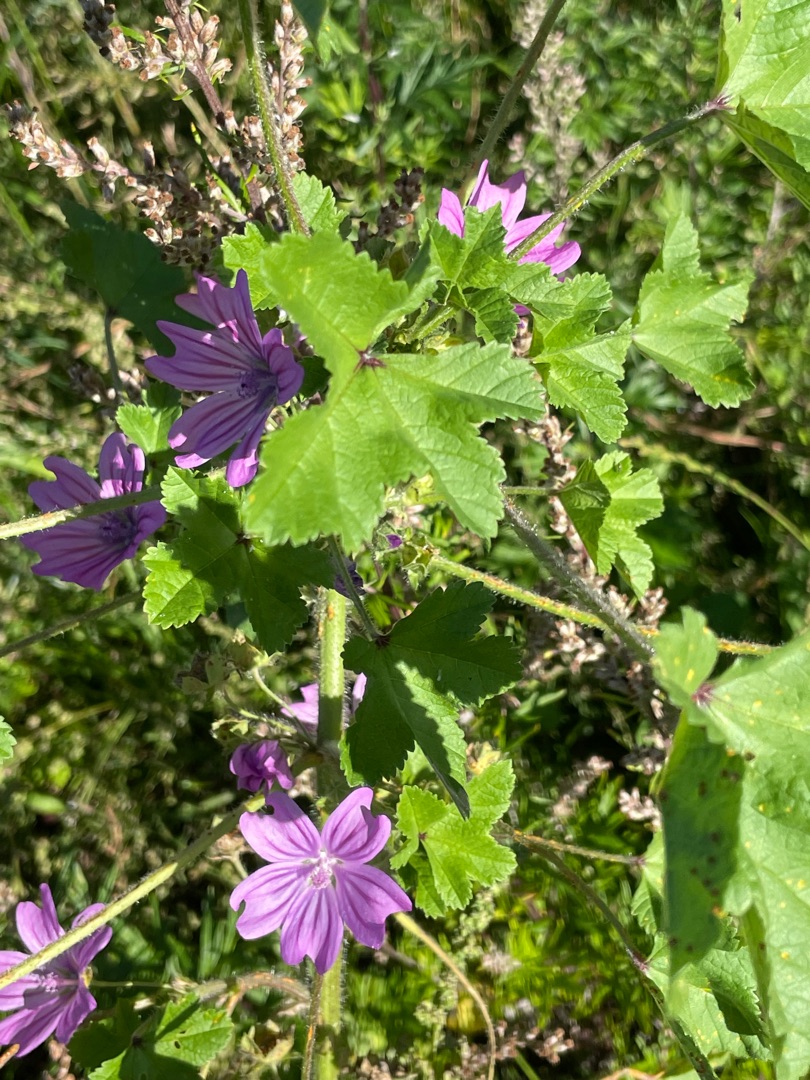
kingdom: Plantae
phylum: Tracheophyta
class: Magnoliopsida
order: Malvales
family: Malvaceae
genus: Malva
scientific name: Malva sylvestris
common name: Almindelig katost
